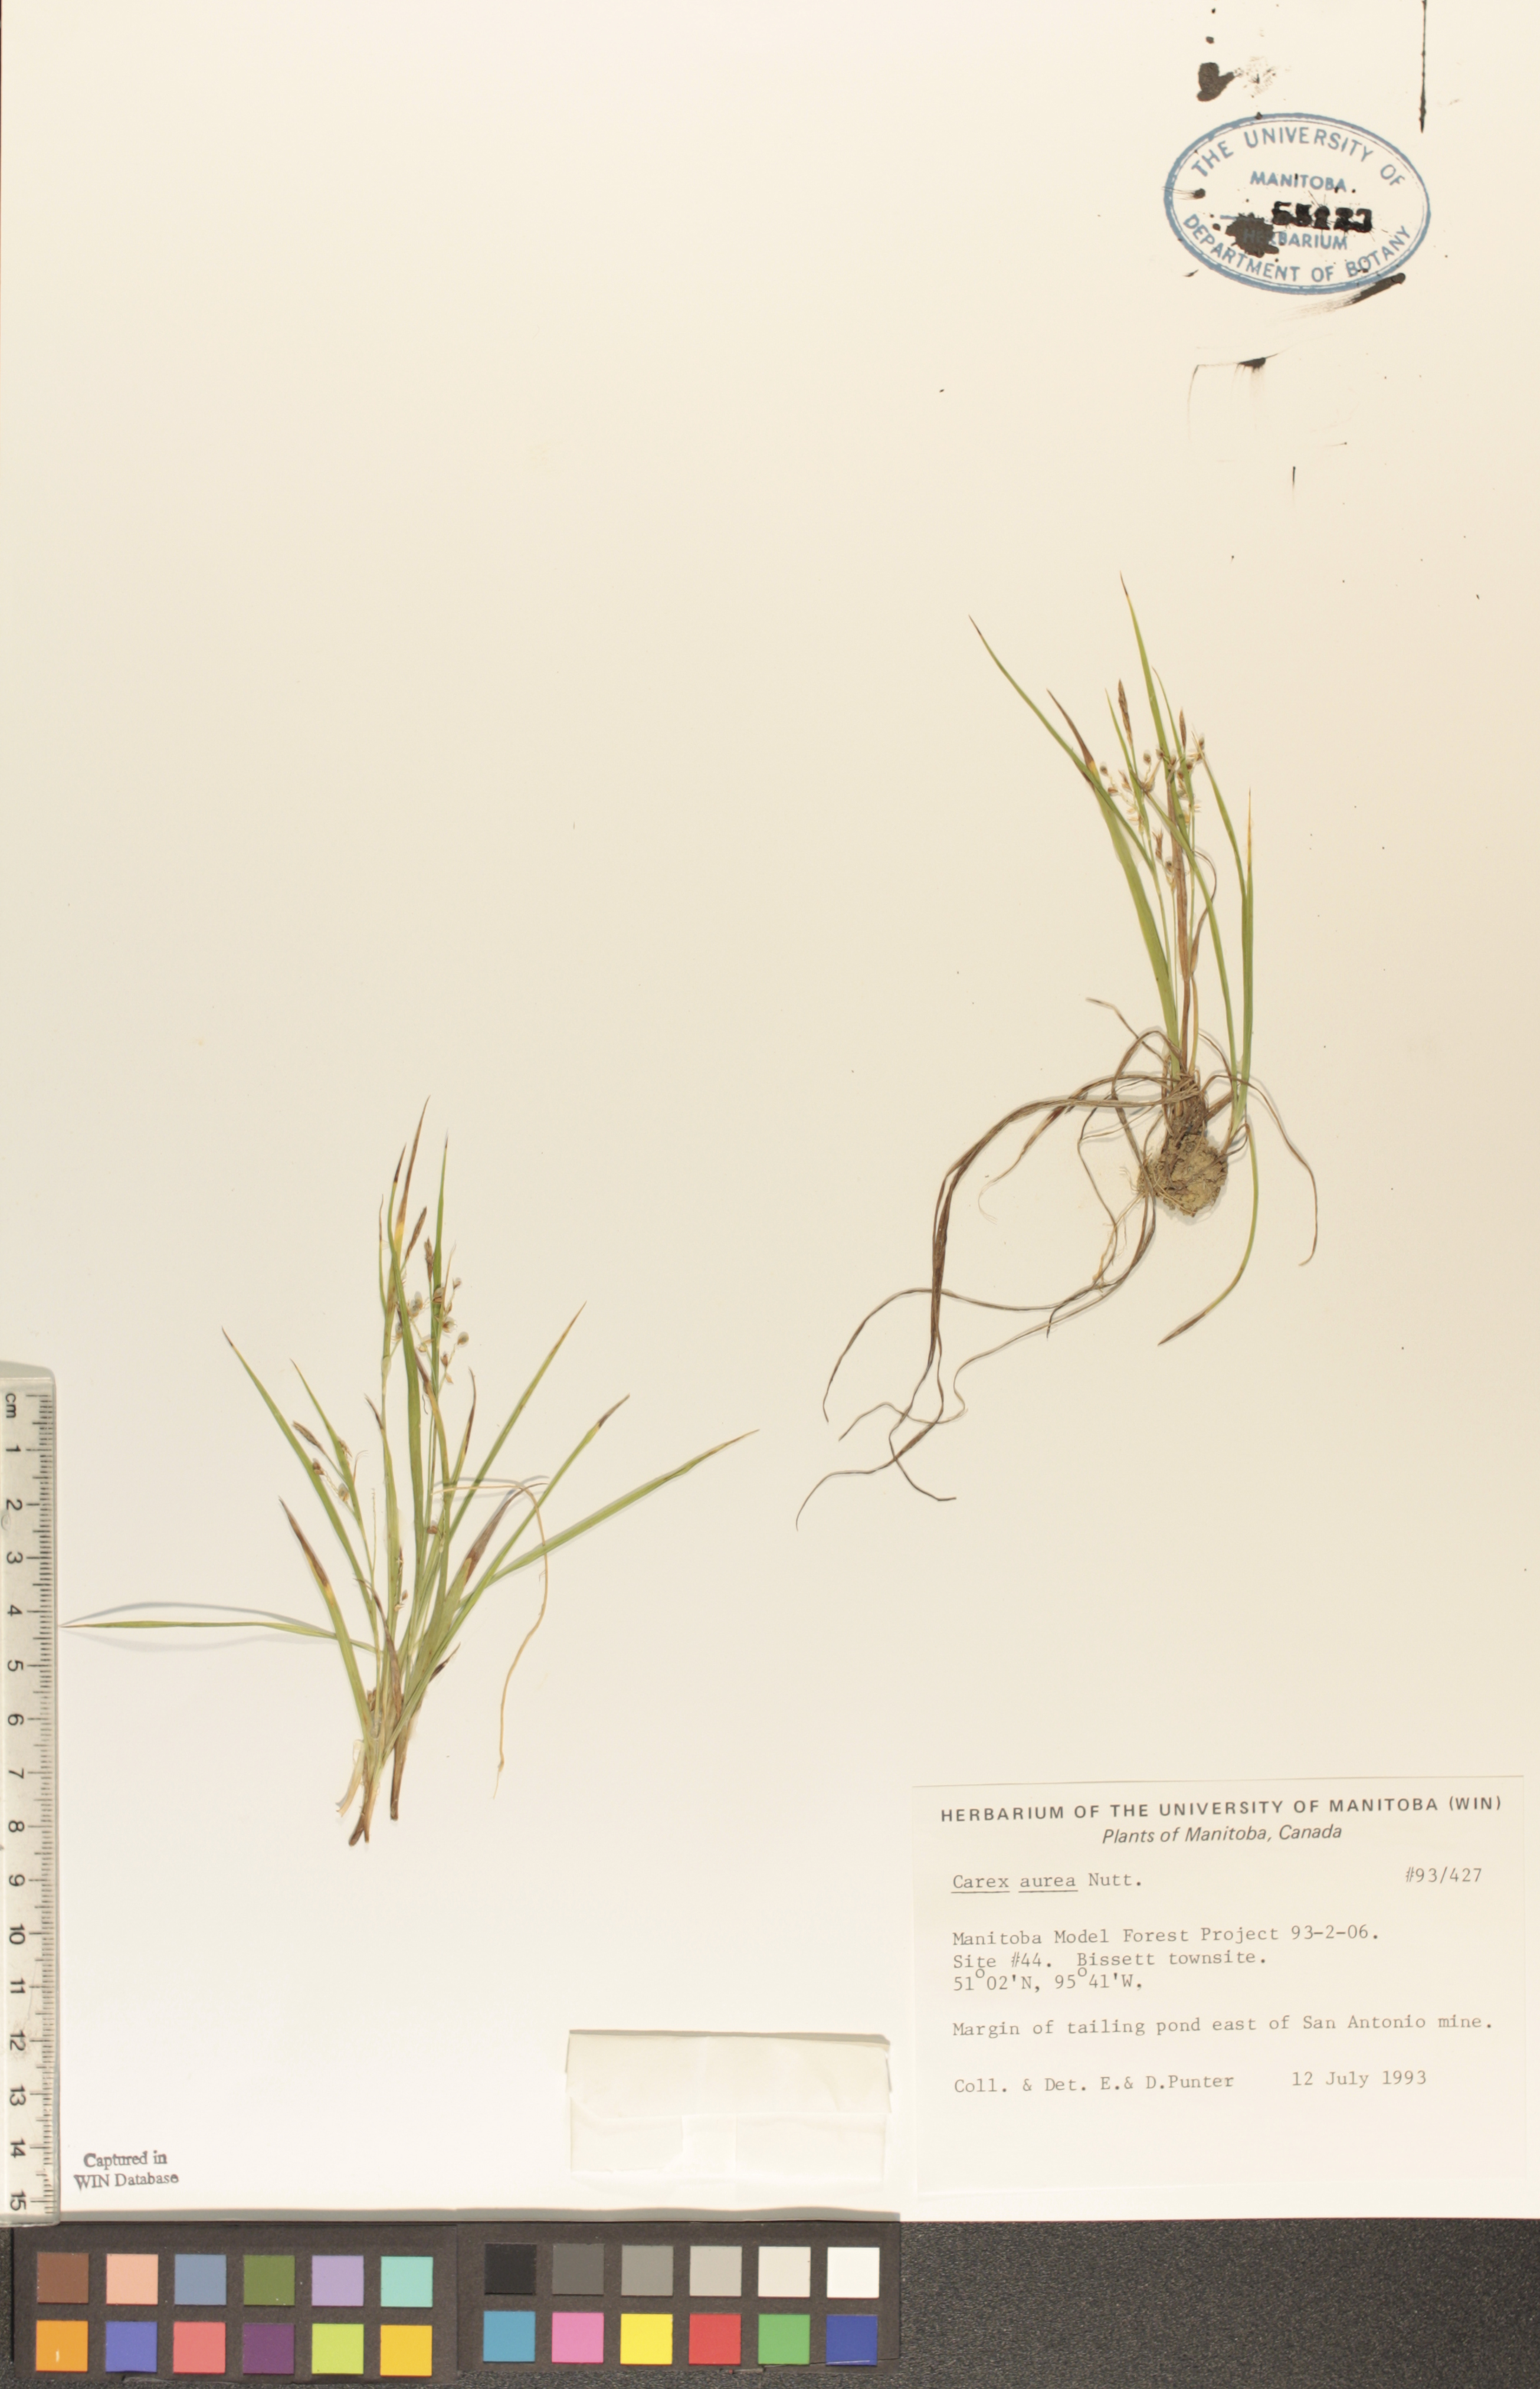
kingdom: Plantae
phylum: Tracheophyta
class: Liliopsida
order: Poales
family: Cyperaceae
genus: Carex
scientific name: Carex aurea
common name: Golden sedge
